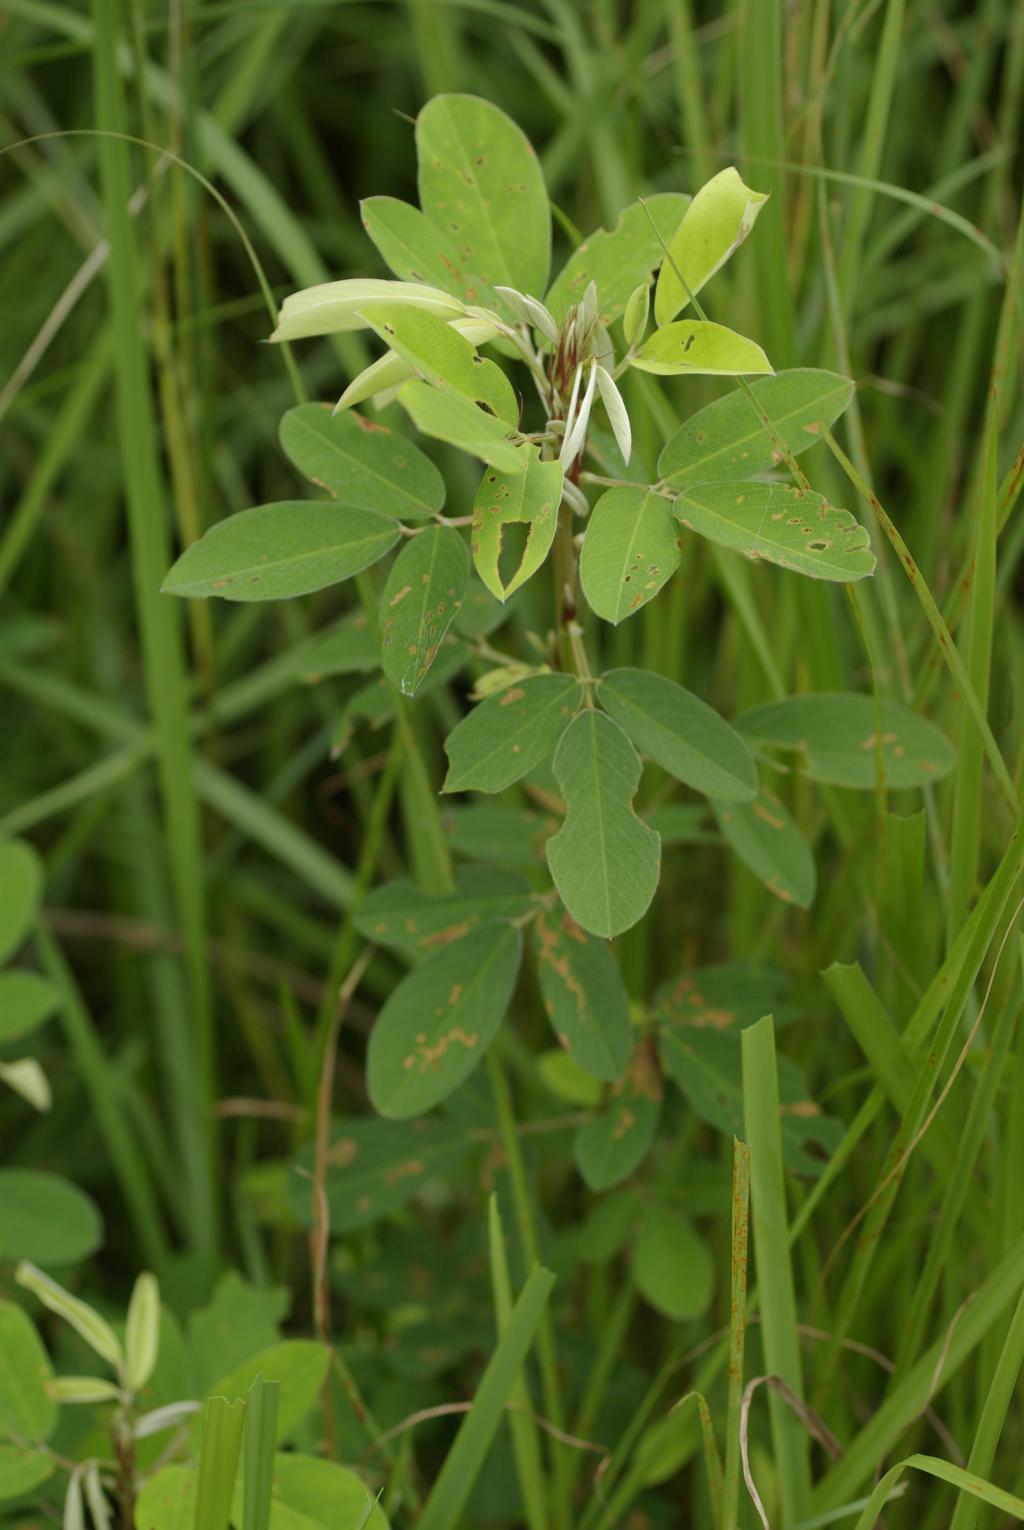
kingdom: Plantae
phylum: Tracheophyta
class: Magnoliopsida
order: Fabales
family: Fabaceae
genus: Grona
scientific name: Grona heterocarpos
